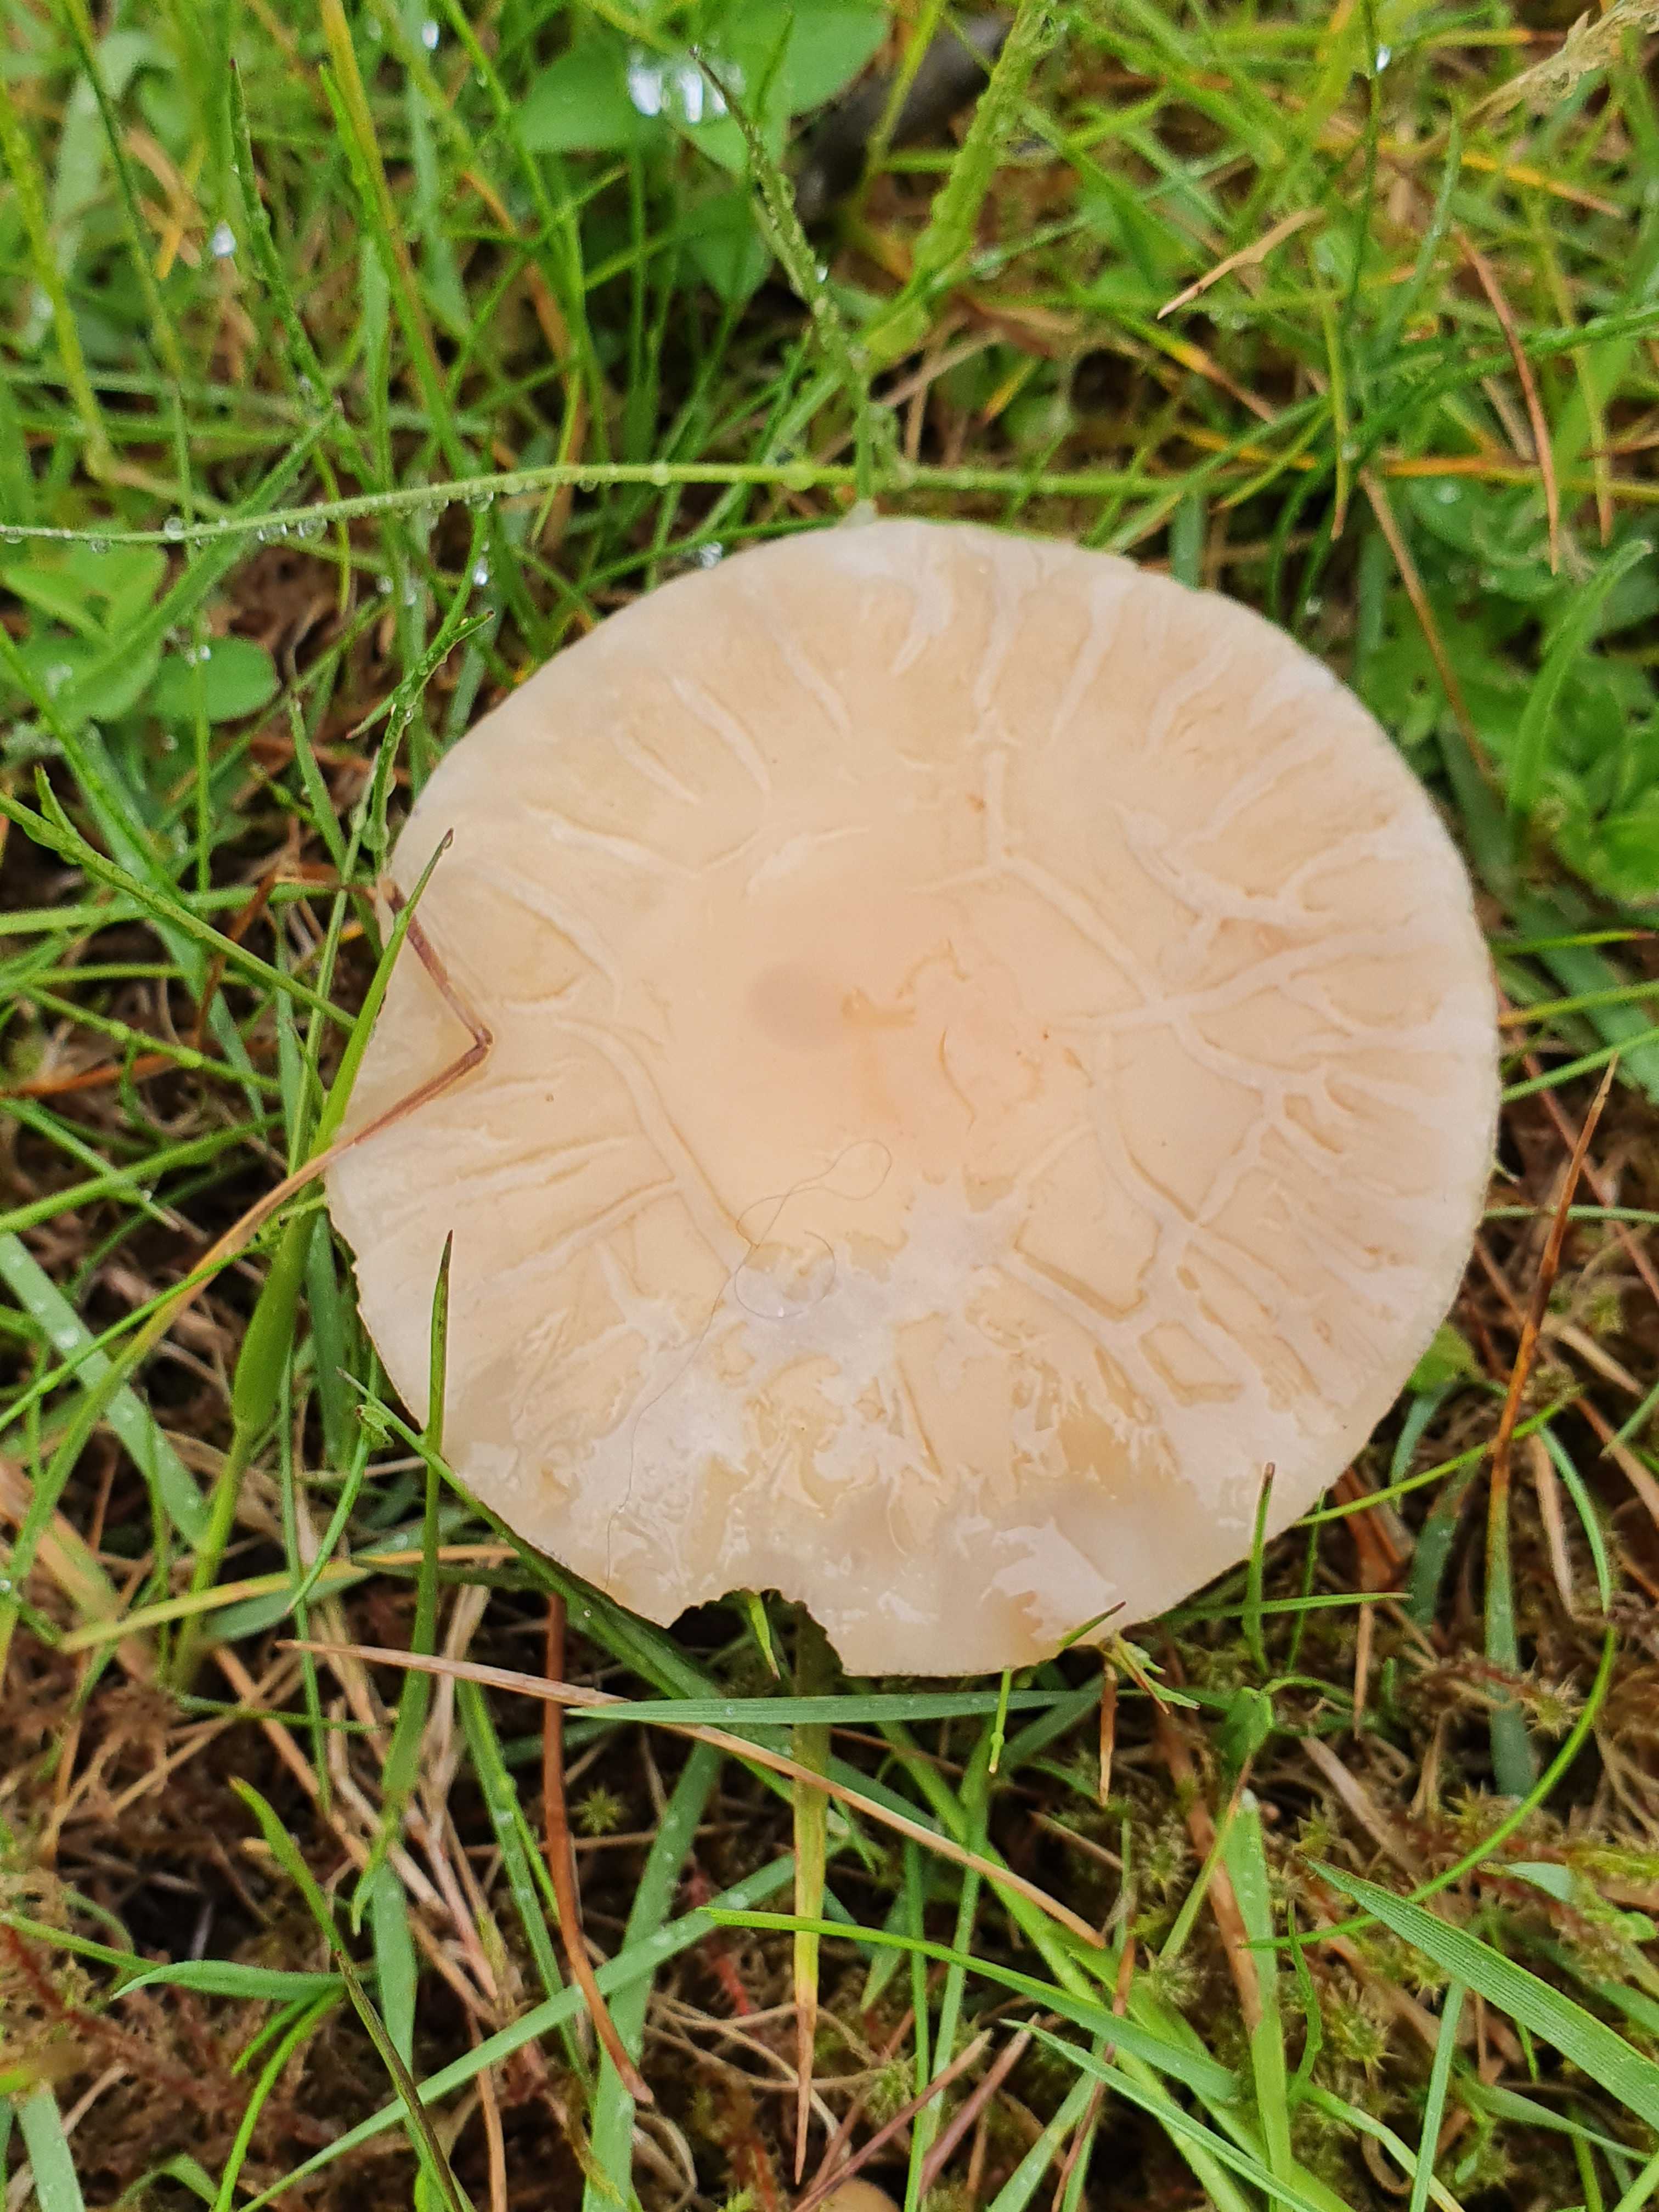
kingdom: Fungi
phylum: Basidiomycota
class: Agaricomycetes
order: Agaricales
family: Strophariaceae
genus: Agrocybe
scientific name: Agrocybe praecox
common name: tidlig agerhat
